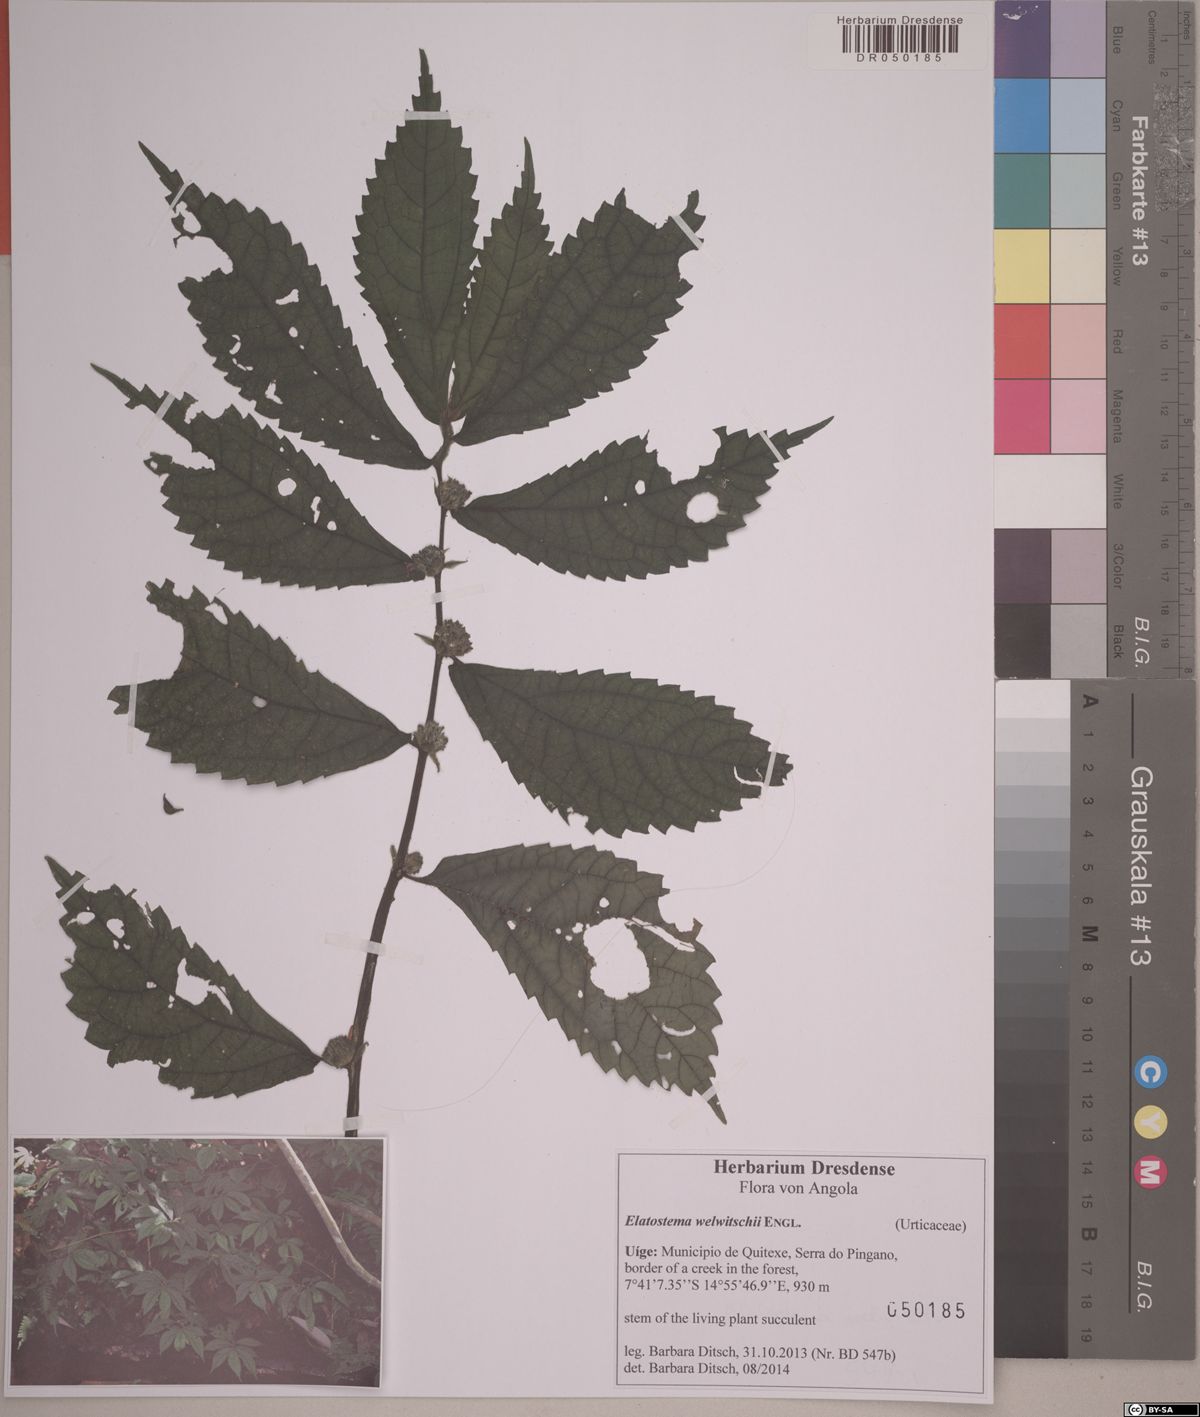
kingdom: Plantae
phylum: Tracheophyta
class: Magnoliopsida
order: Rosales
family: Urticaceae
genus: Elatostema
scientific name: Elatostema paivaeanum
